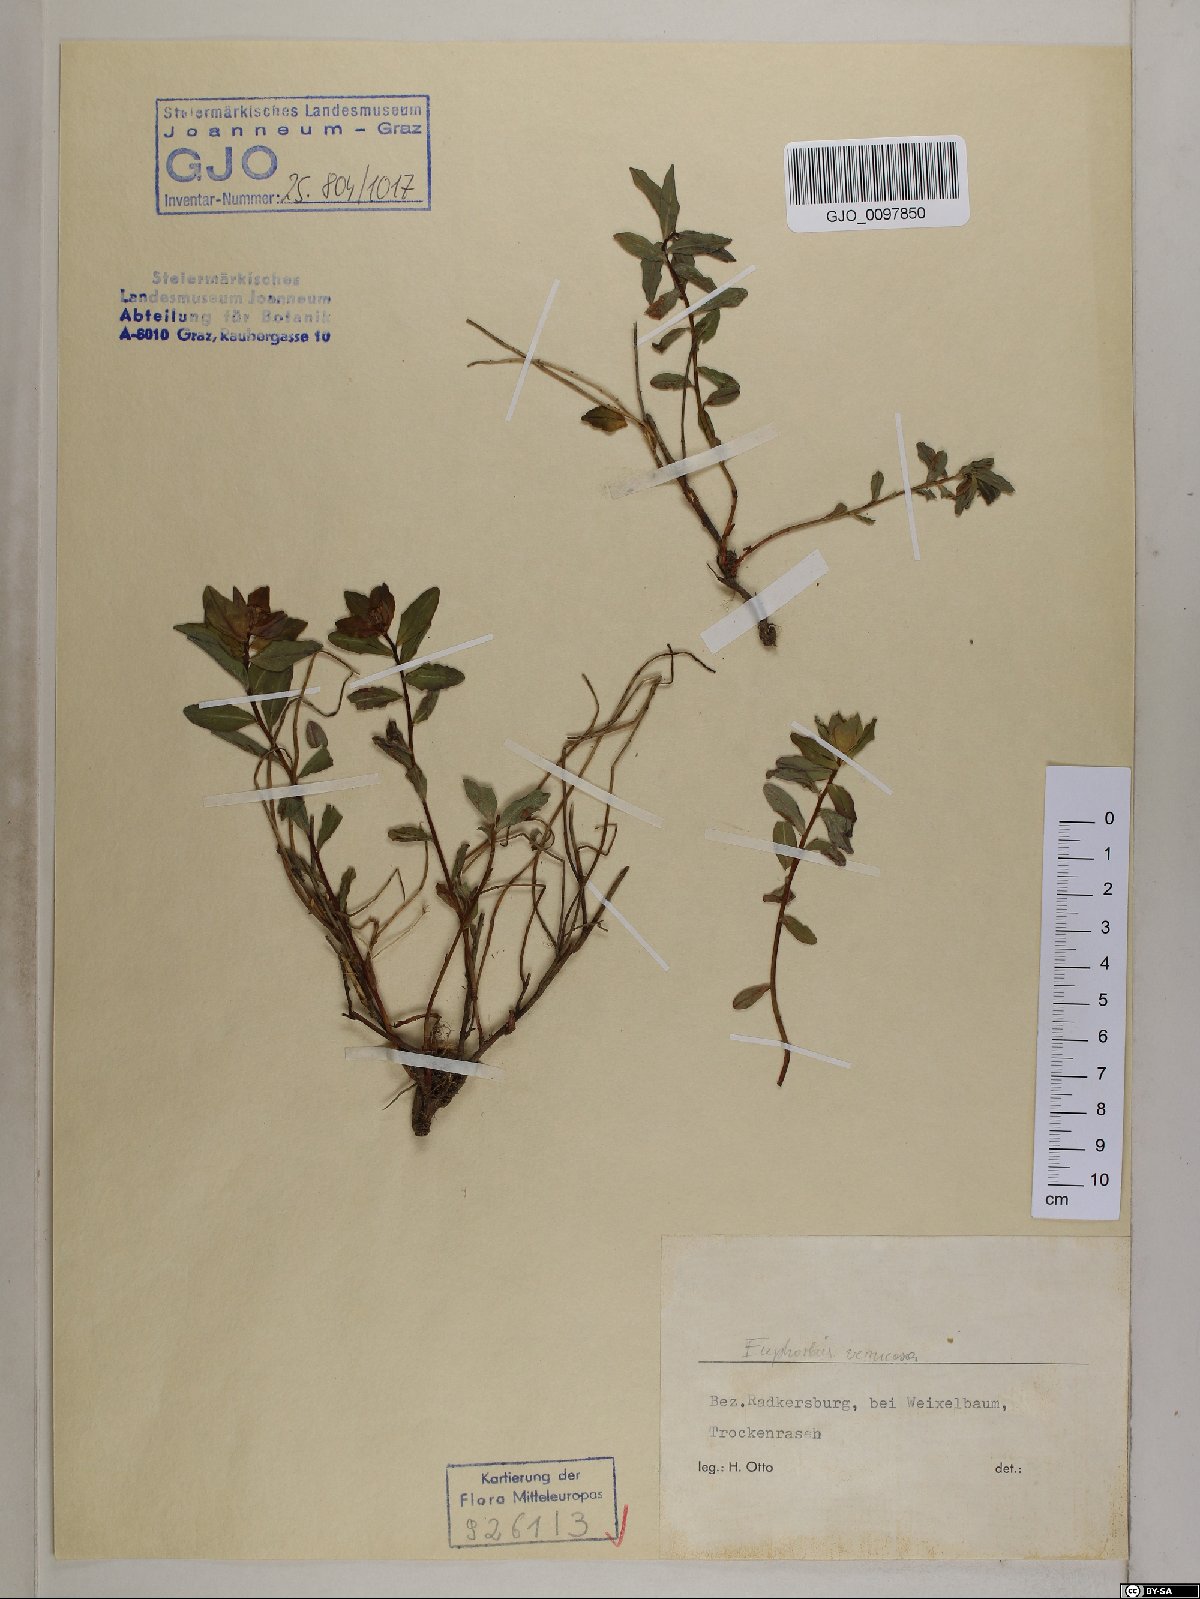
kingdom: Plantae
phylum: Tracheophyta
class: Magnoliopsida
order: Malpighiales
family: Euphorbiaceae
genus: Euphorbia
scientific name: Euphorbia verrucosa
